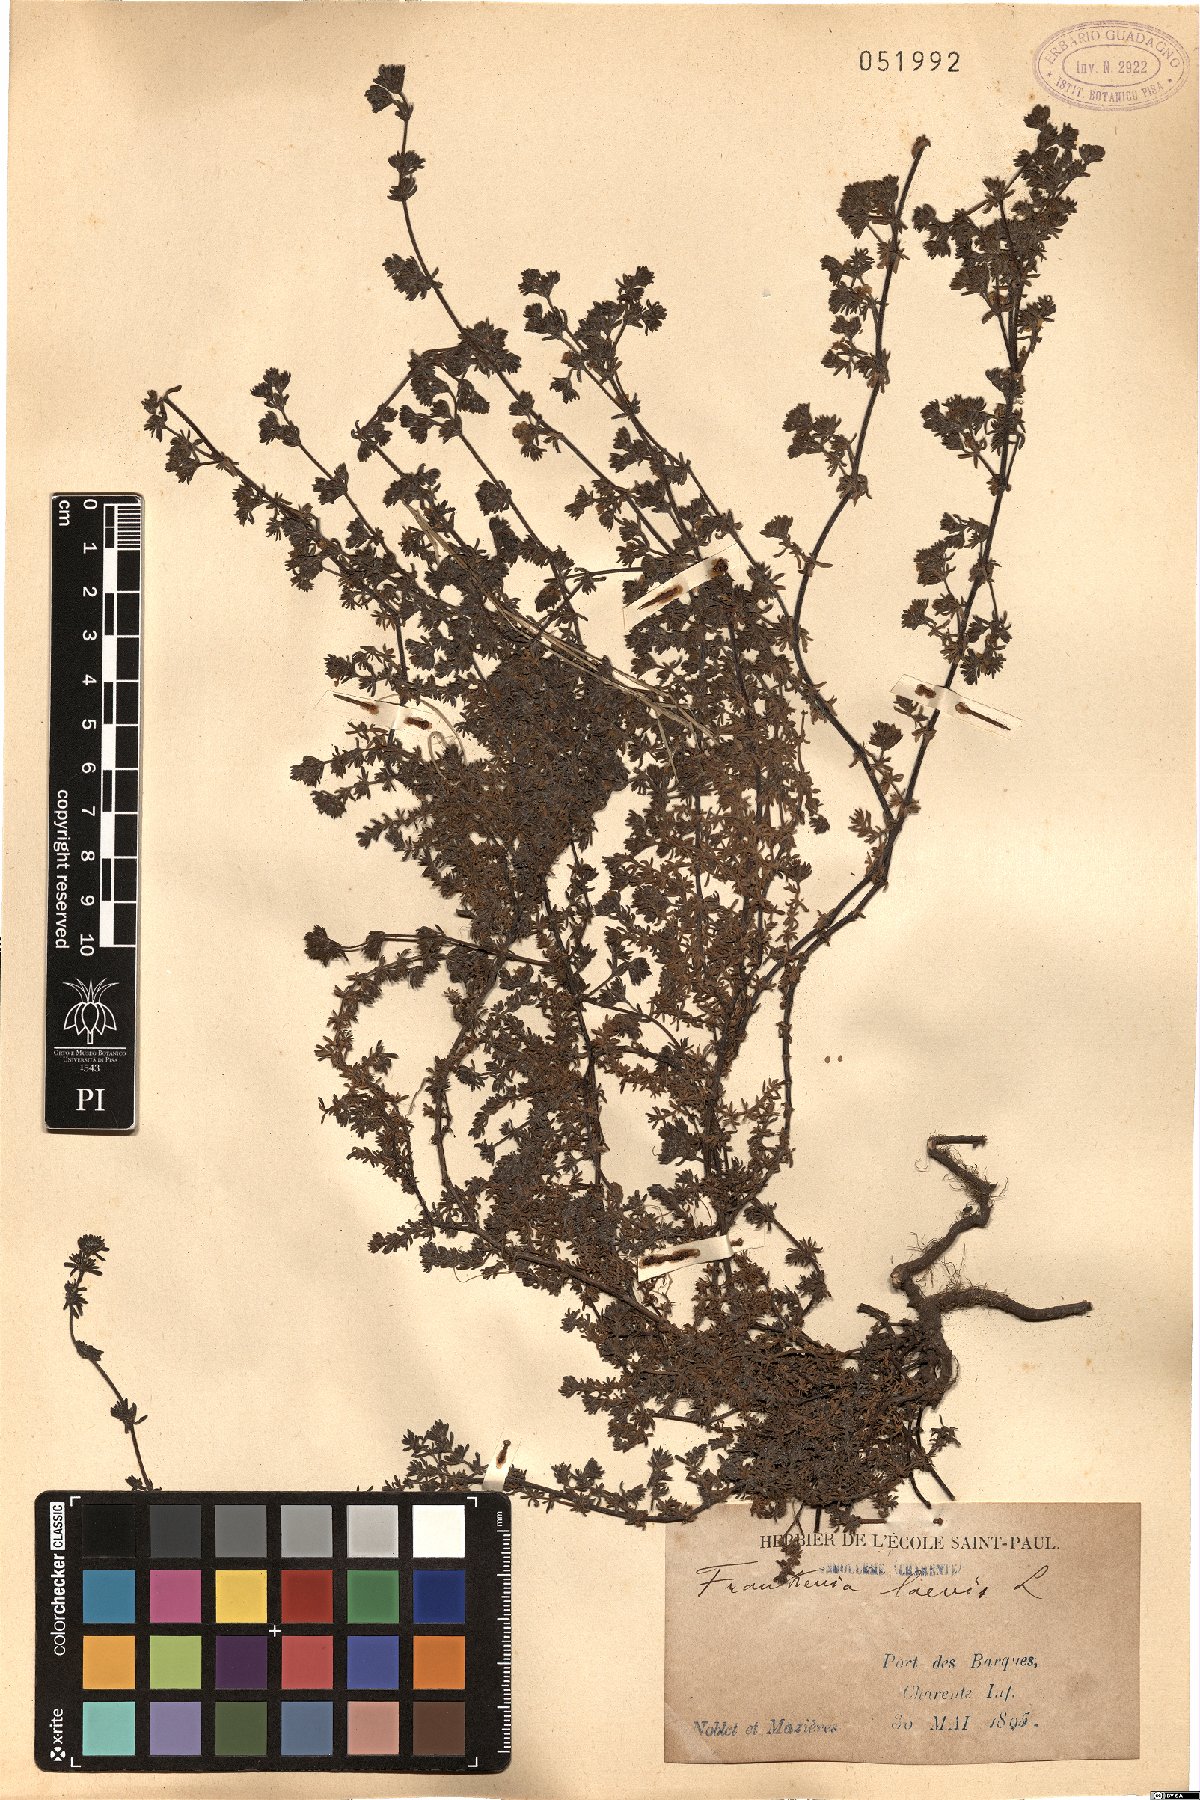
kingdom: Plantae
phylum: Tracheophyta
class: Magnoliopsida
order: Caryophyllales
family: Frankeniaceae
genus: Frankenia
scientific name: Frankenia laevis
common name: Sea-heath
